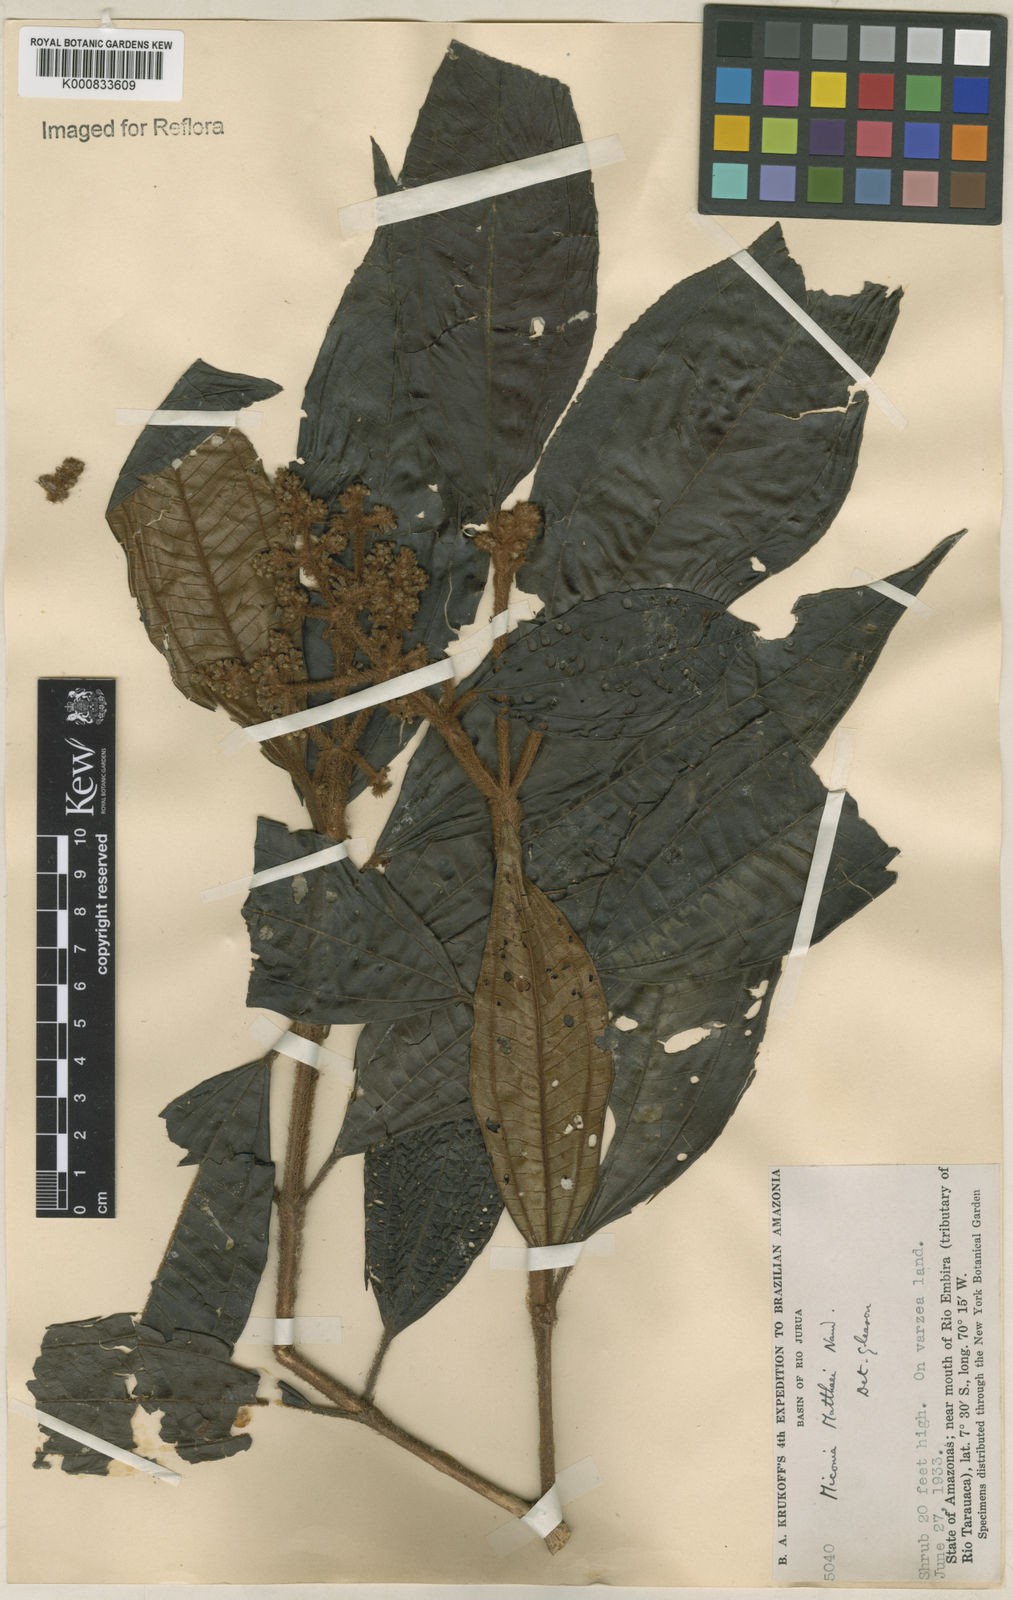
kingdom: Plantae
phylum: Tracheophyta
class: Magnoliopsida
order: Myrtales
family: Melastomataceae
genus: Miconia
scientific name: Miconia matthaei
